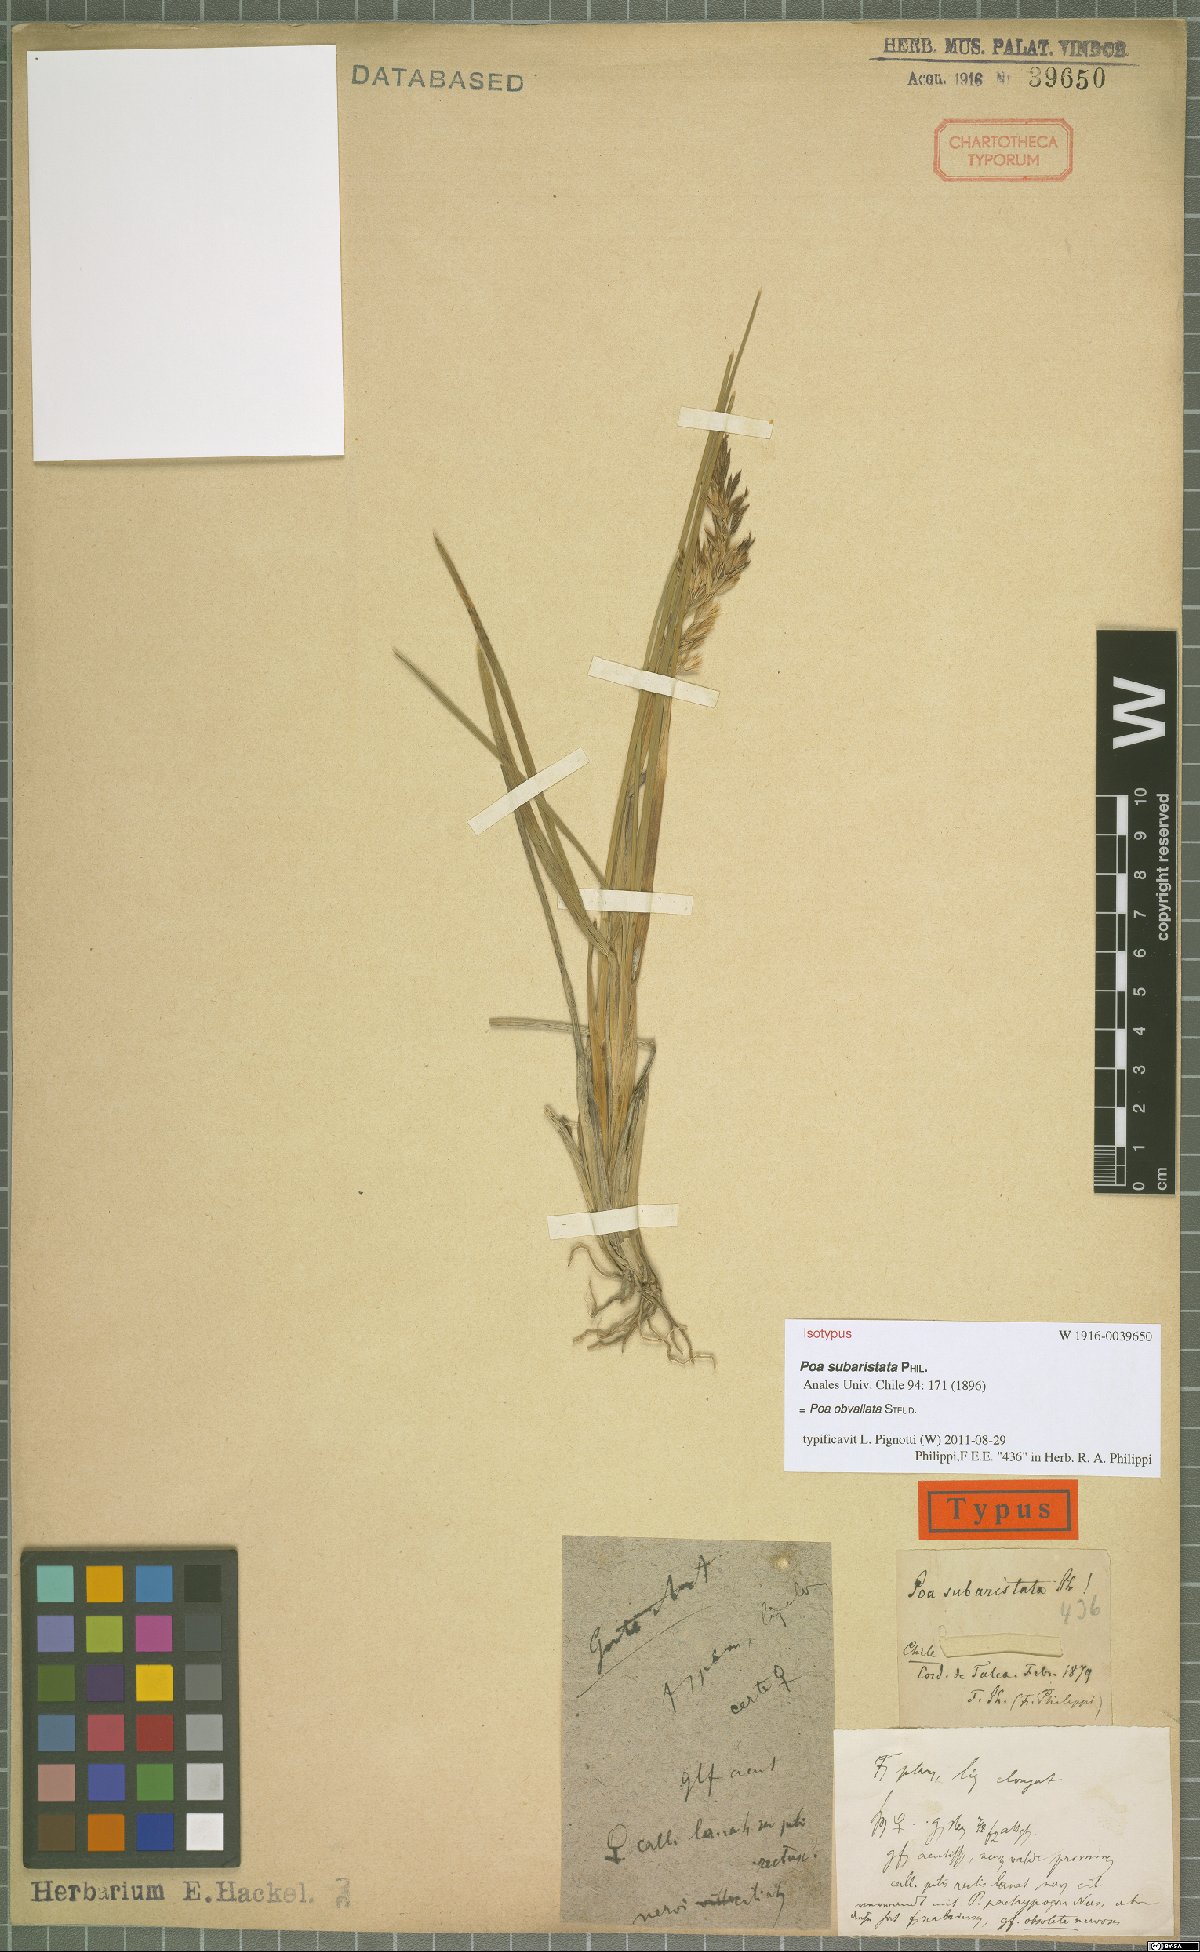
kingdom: Plantae
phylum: Tracheophyta
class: Liliopsida
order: Poales
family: Poaceae
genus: Poa
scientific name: Poa obvallata
